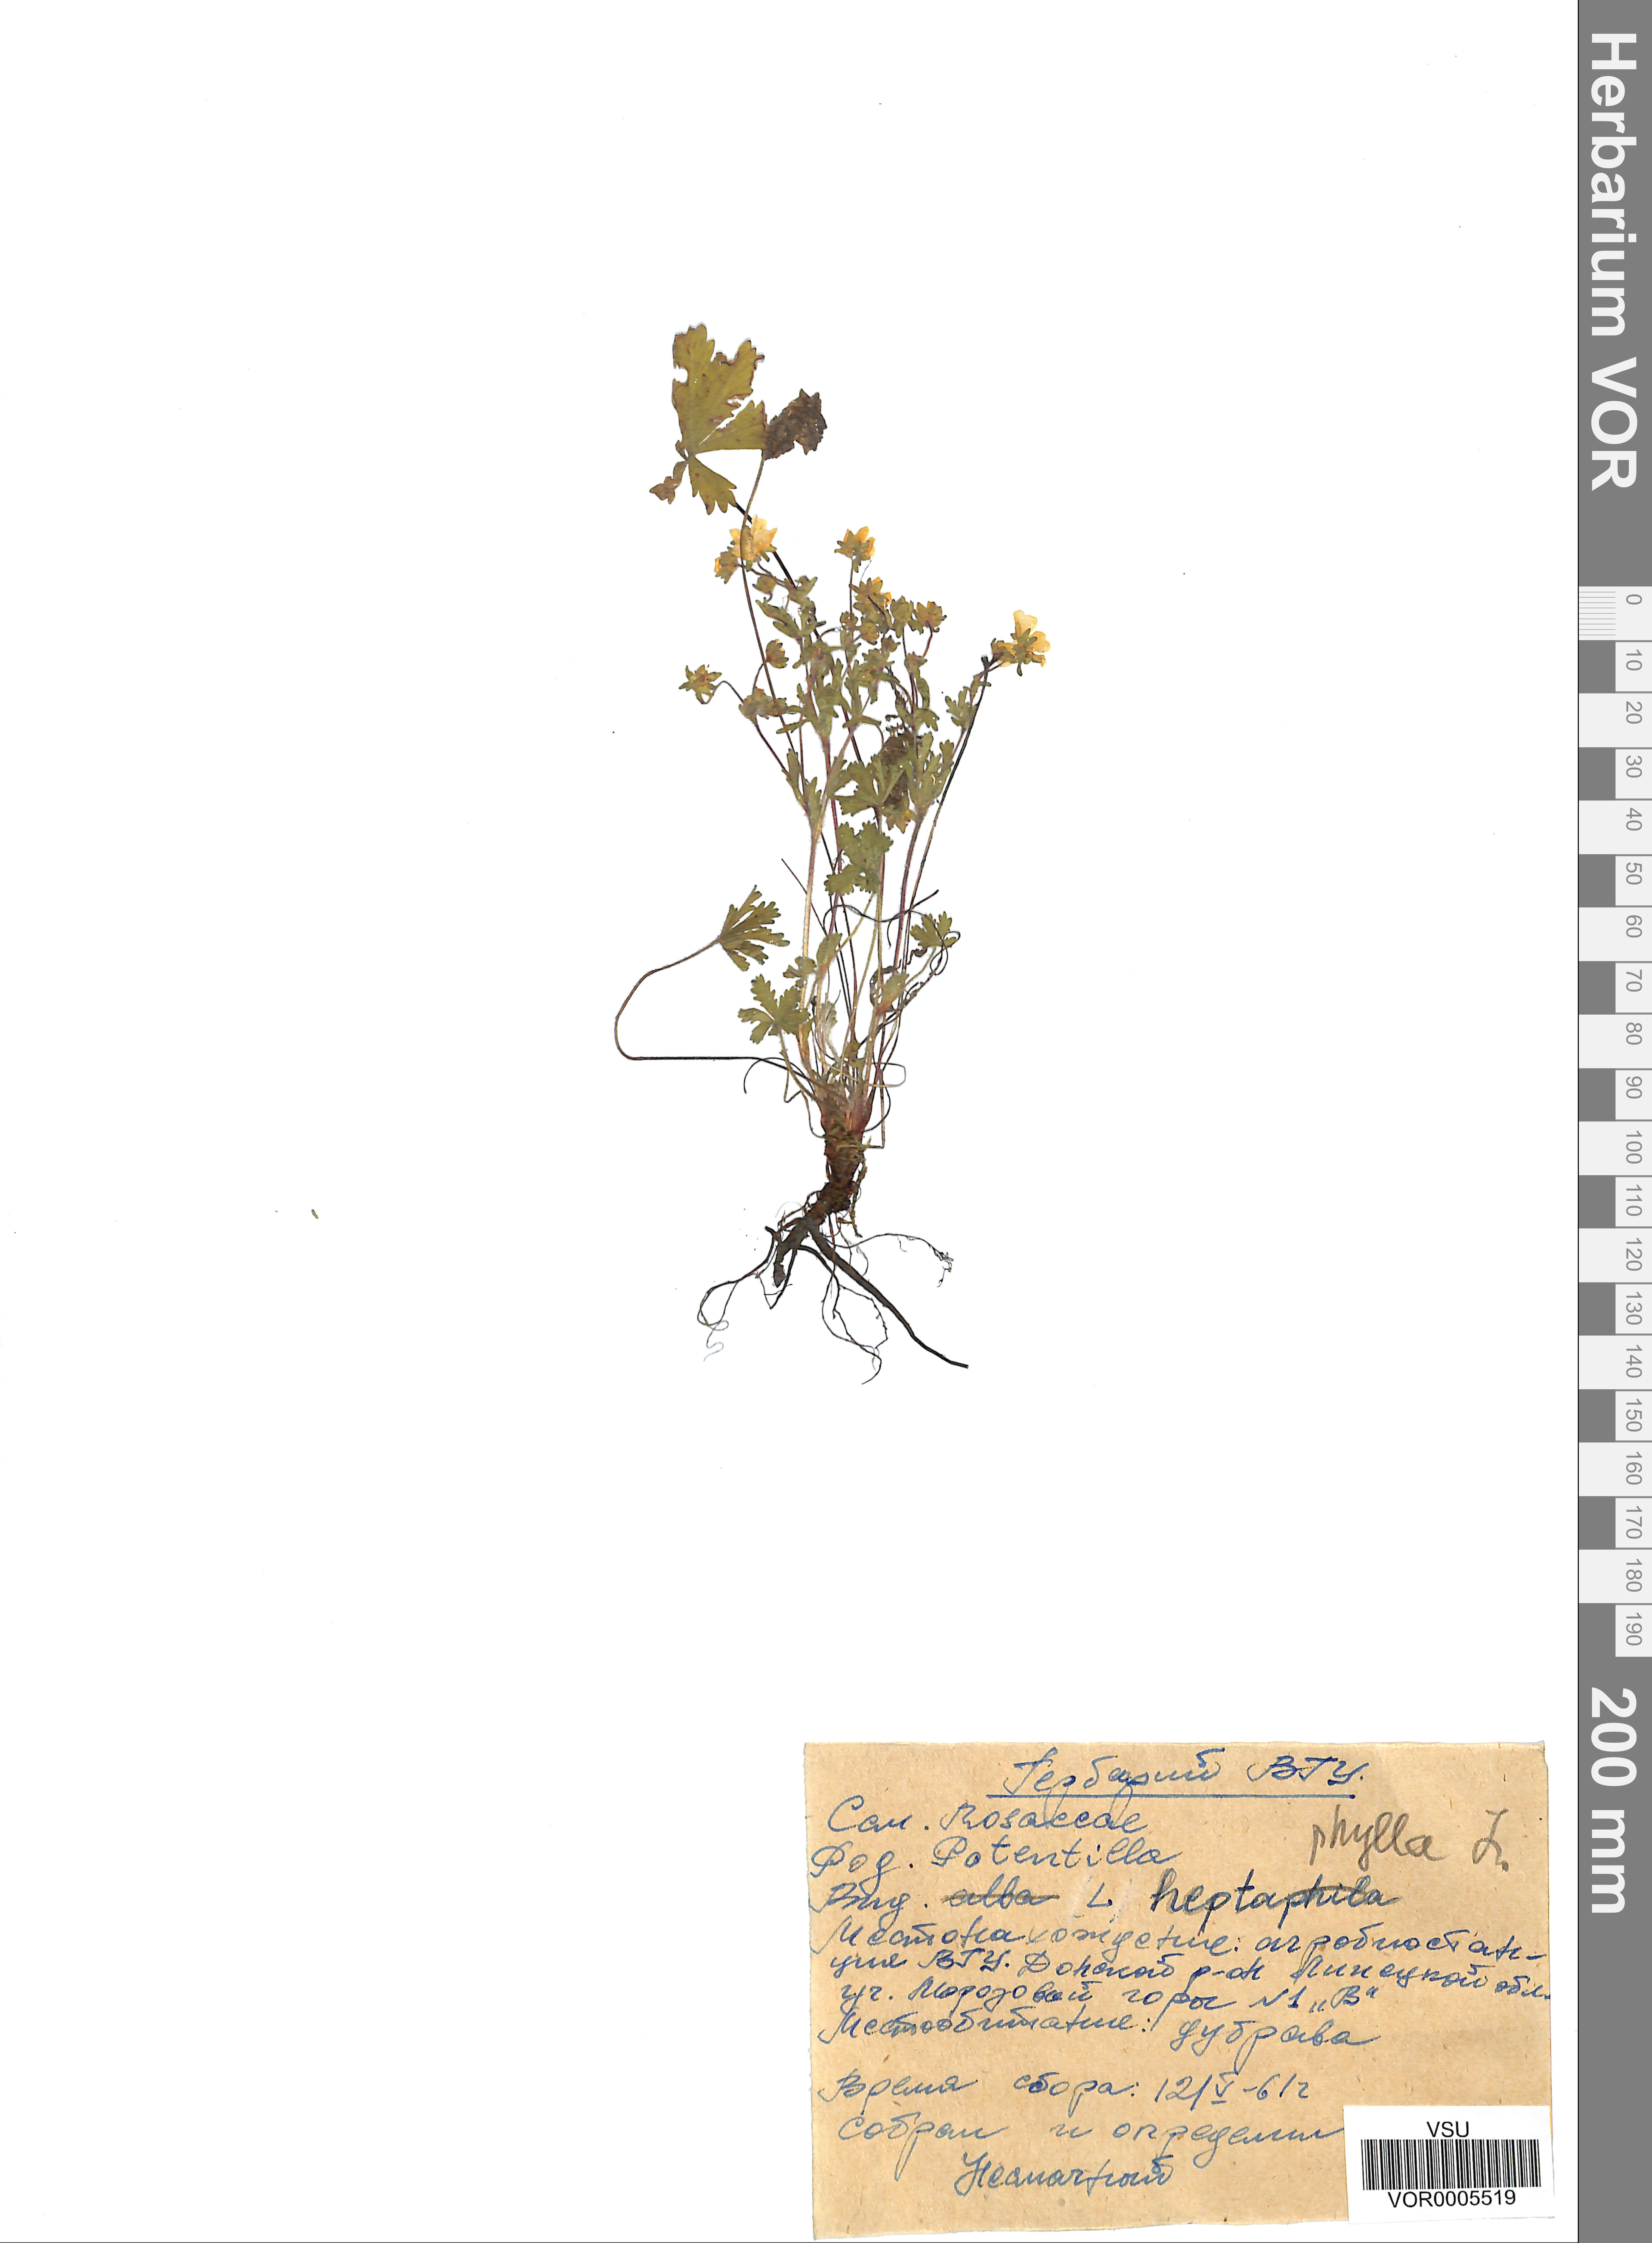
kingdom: Plantae
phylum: Tracheophyta
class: Magnoliopsida
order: Rosales
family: Rosaceae
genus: Potentilla
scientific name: Potentilla heptaphylla
